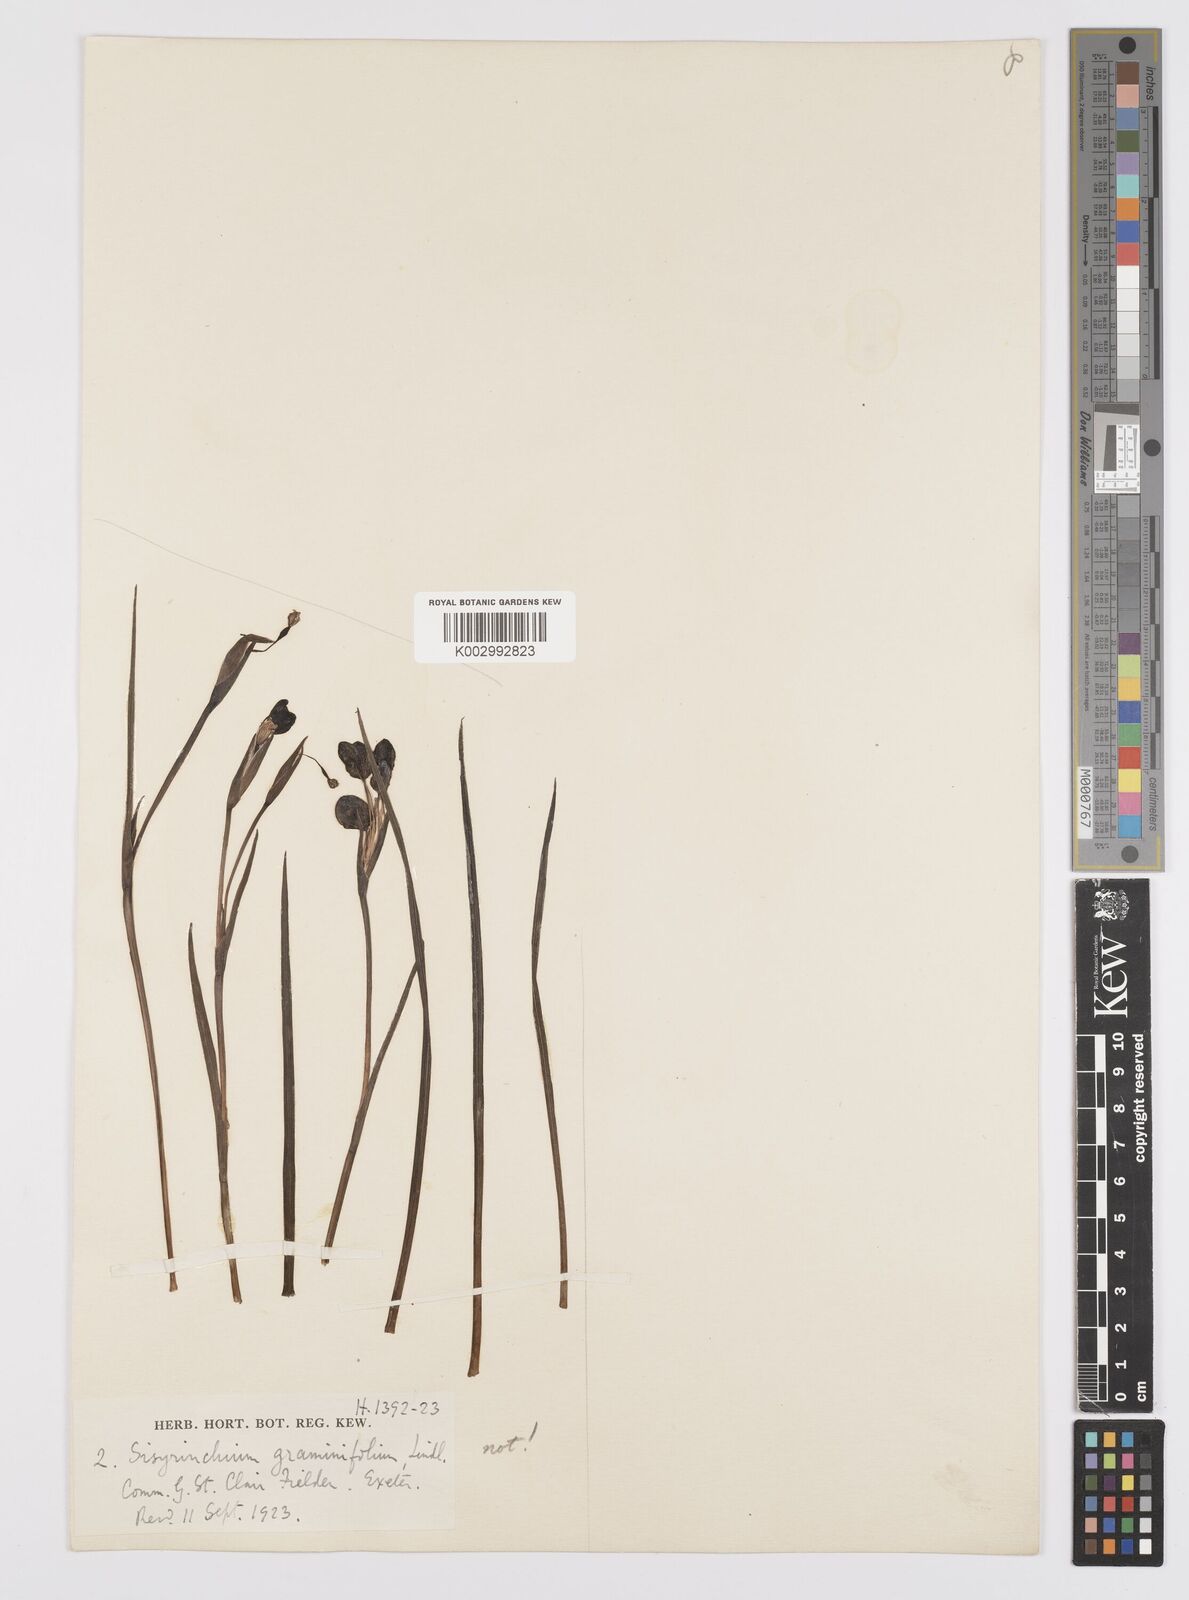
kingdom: Plantae
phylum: Tracheophyta
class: Liliopsida
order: Asparagales
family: Iridaceae
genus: Sisyrinchium
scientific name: Sisyrinchium graminifolium
